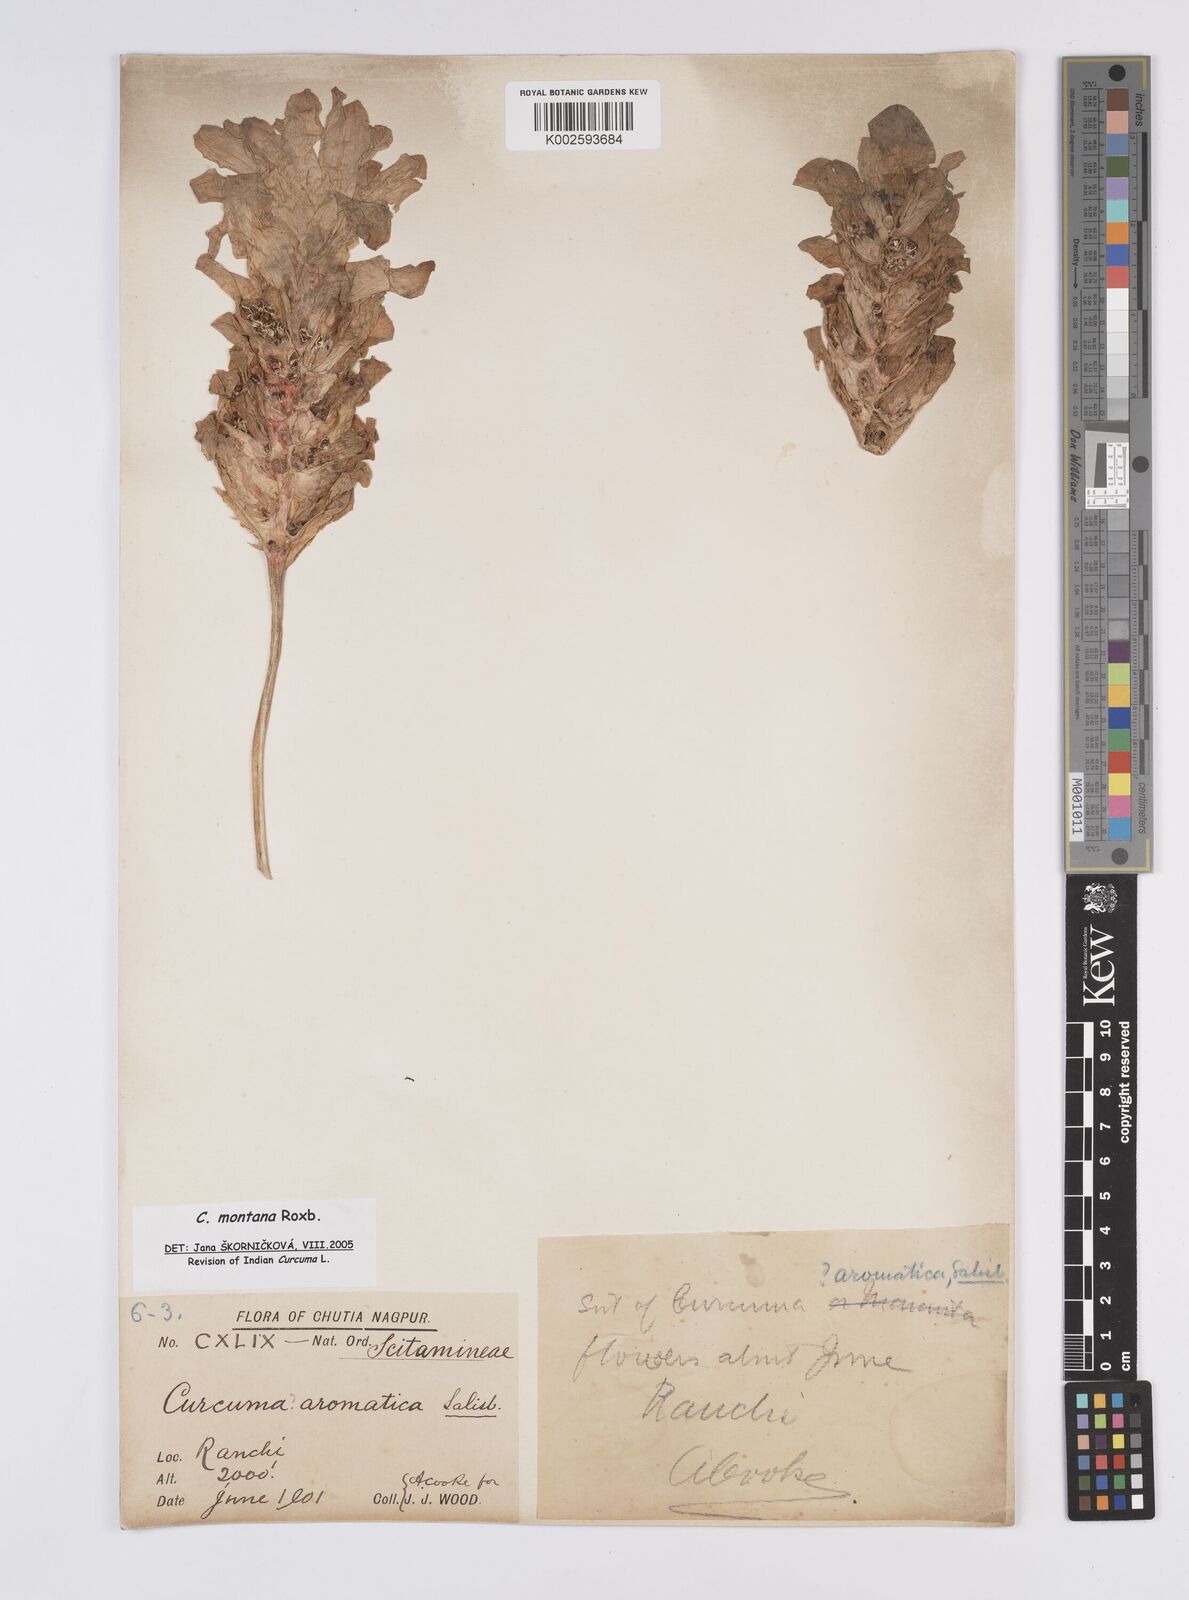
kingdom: Plantae
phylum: Tracheophyta
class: Liliopsida
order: Zingiberales
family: Zingiberaceae
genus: Curcuma
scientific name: Curcuma montana
